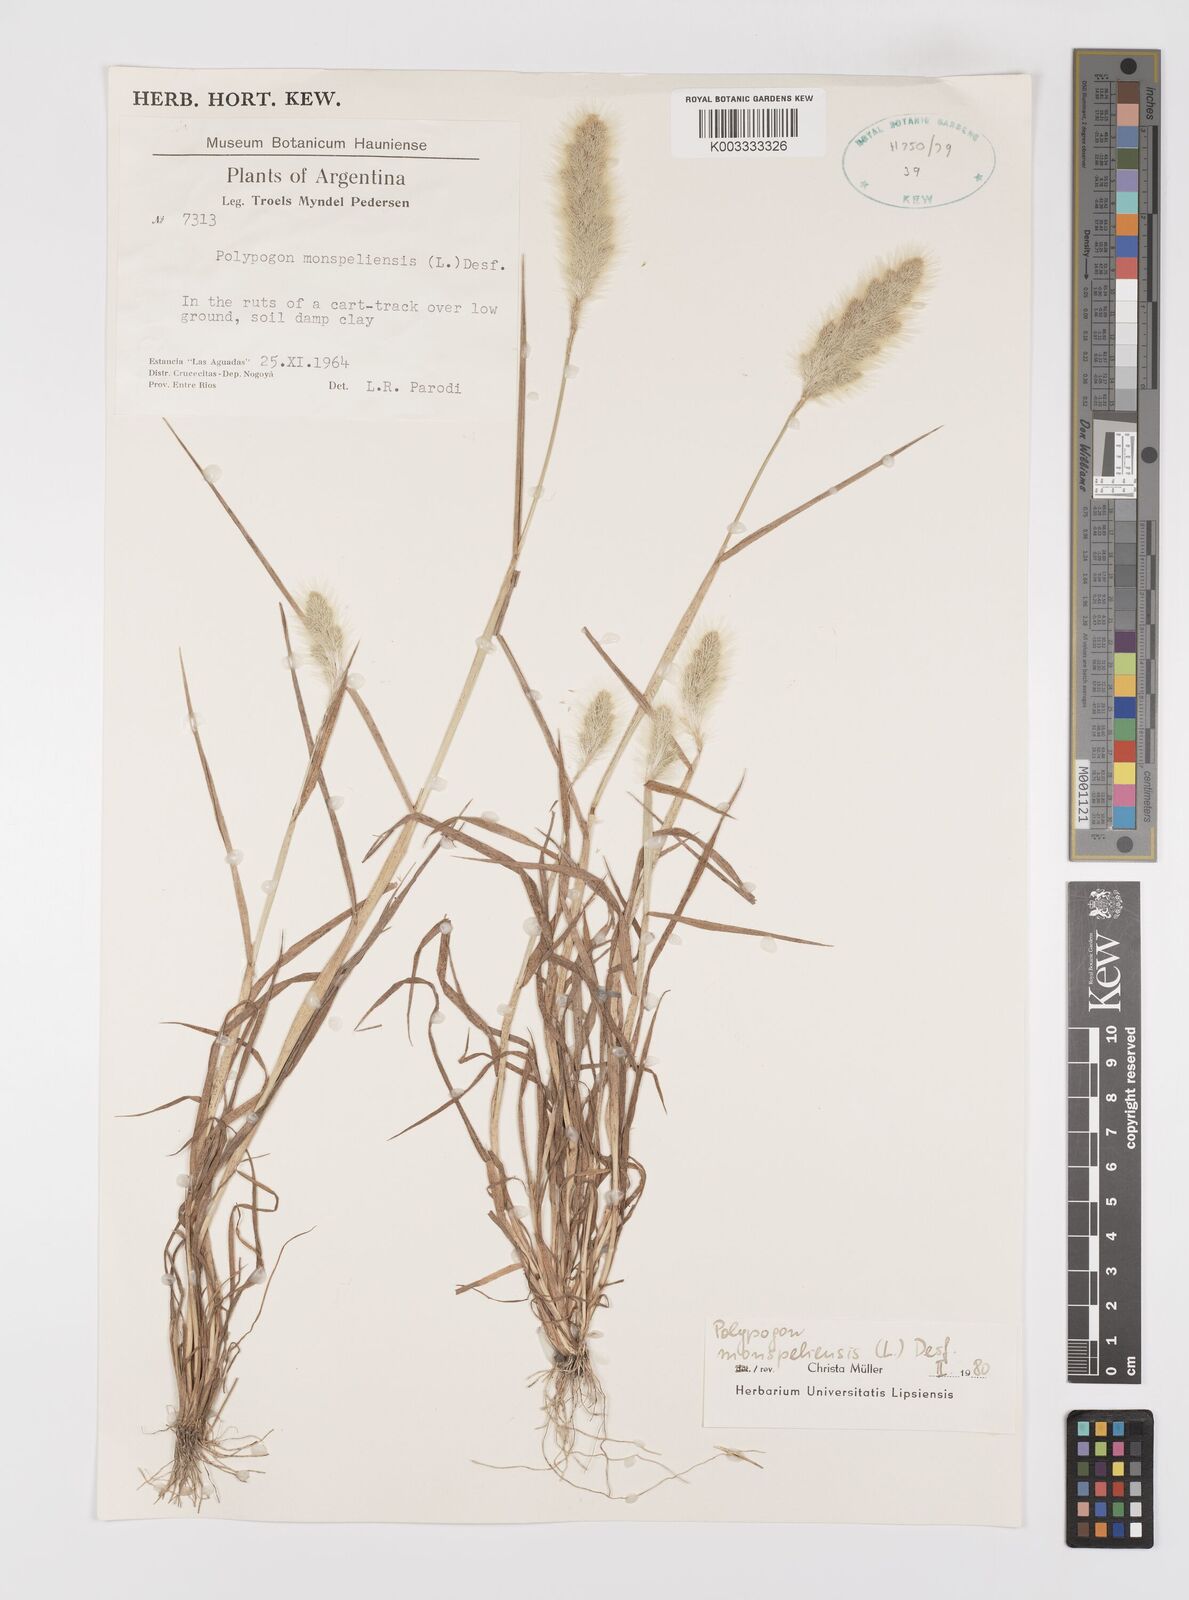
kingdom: Plantae
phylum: Tracheophyta
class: Liliopsida
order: Poales
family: Poaceae
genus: Polypogon
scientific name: Polypogon monspeliensis
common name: Annual rabbitsfoot grass
